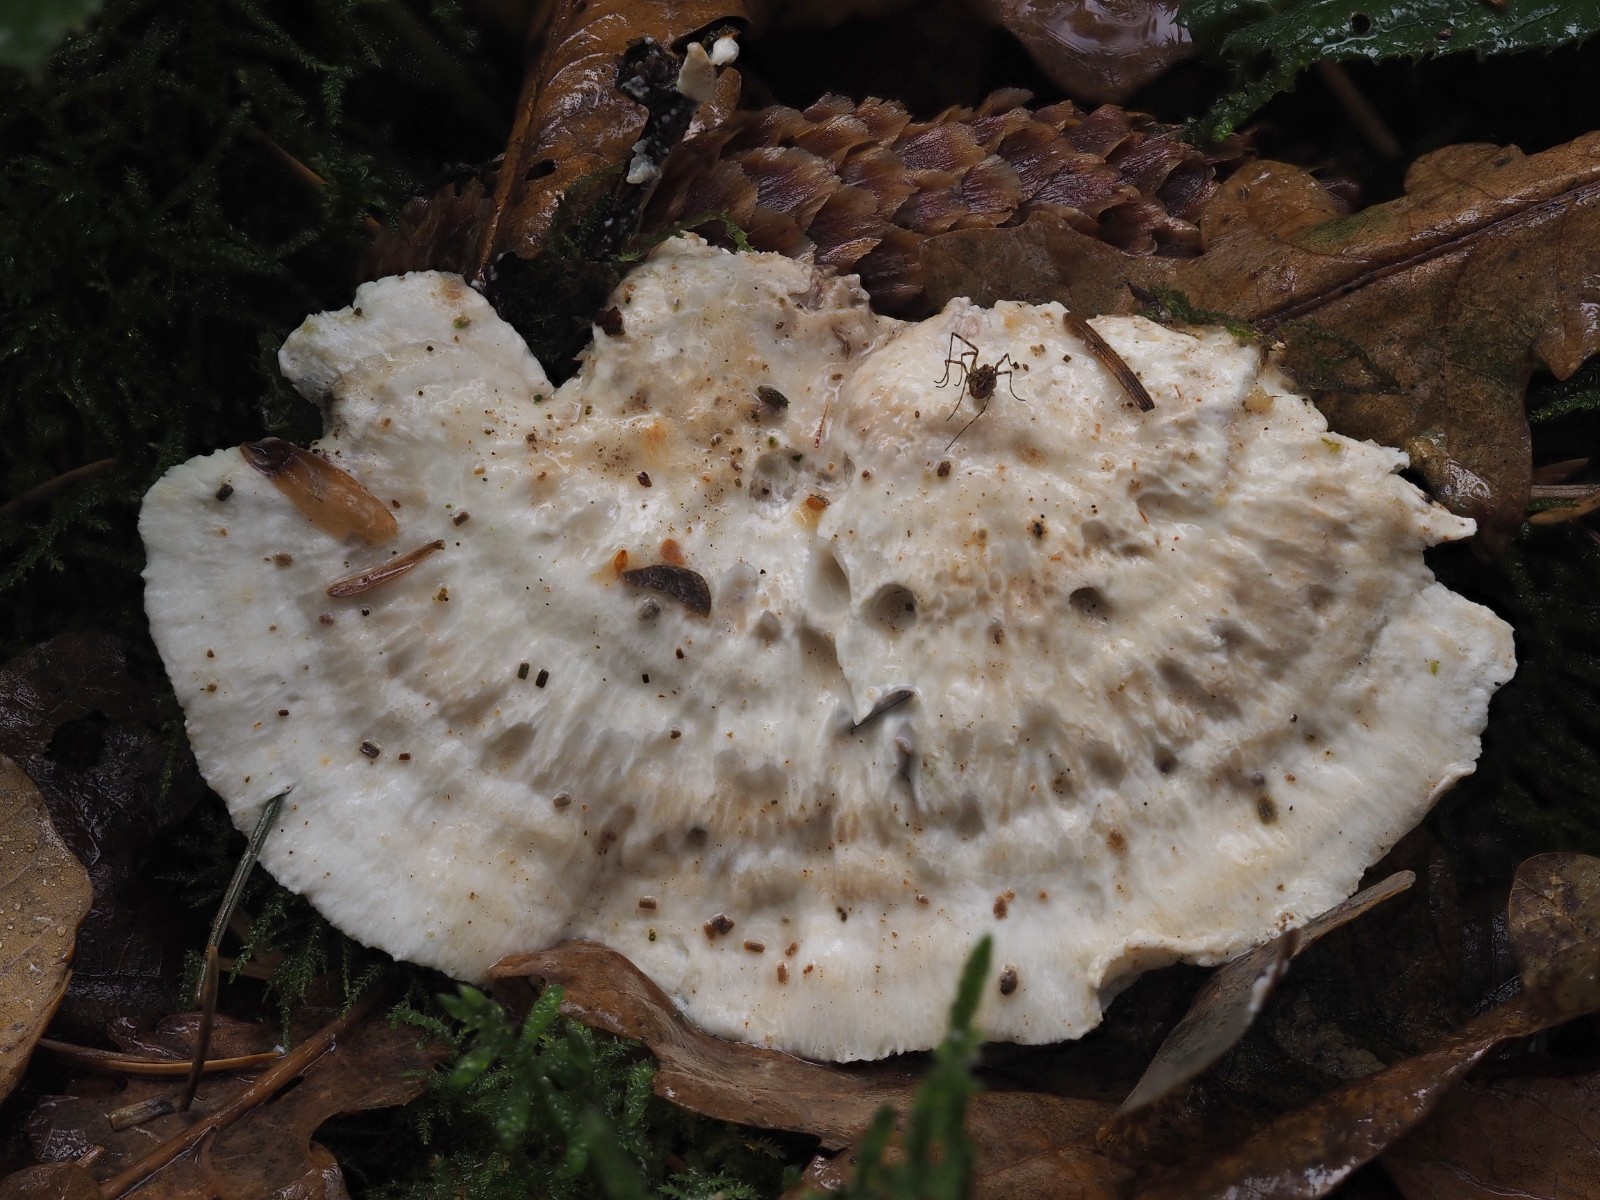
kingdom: Fungi
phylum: Basidiomycota
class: Agaricomycetes
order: Polyporales
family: Dacryobolaceae
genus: Postia
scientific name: Postia
